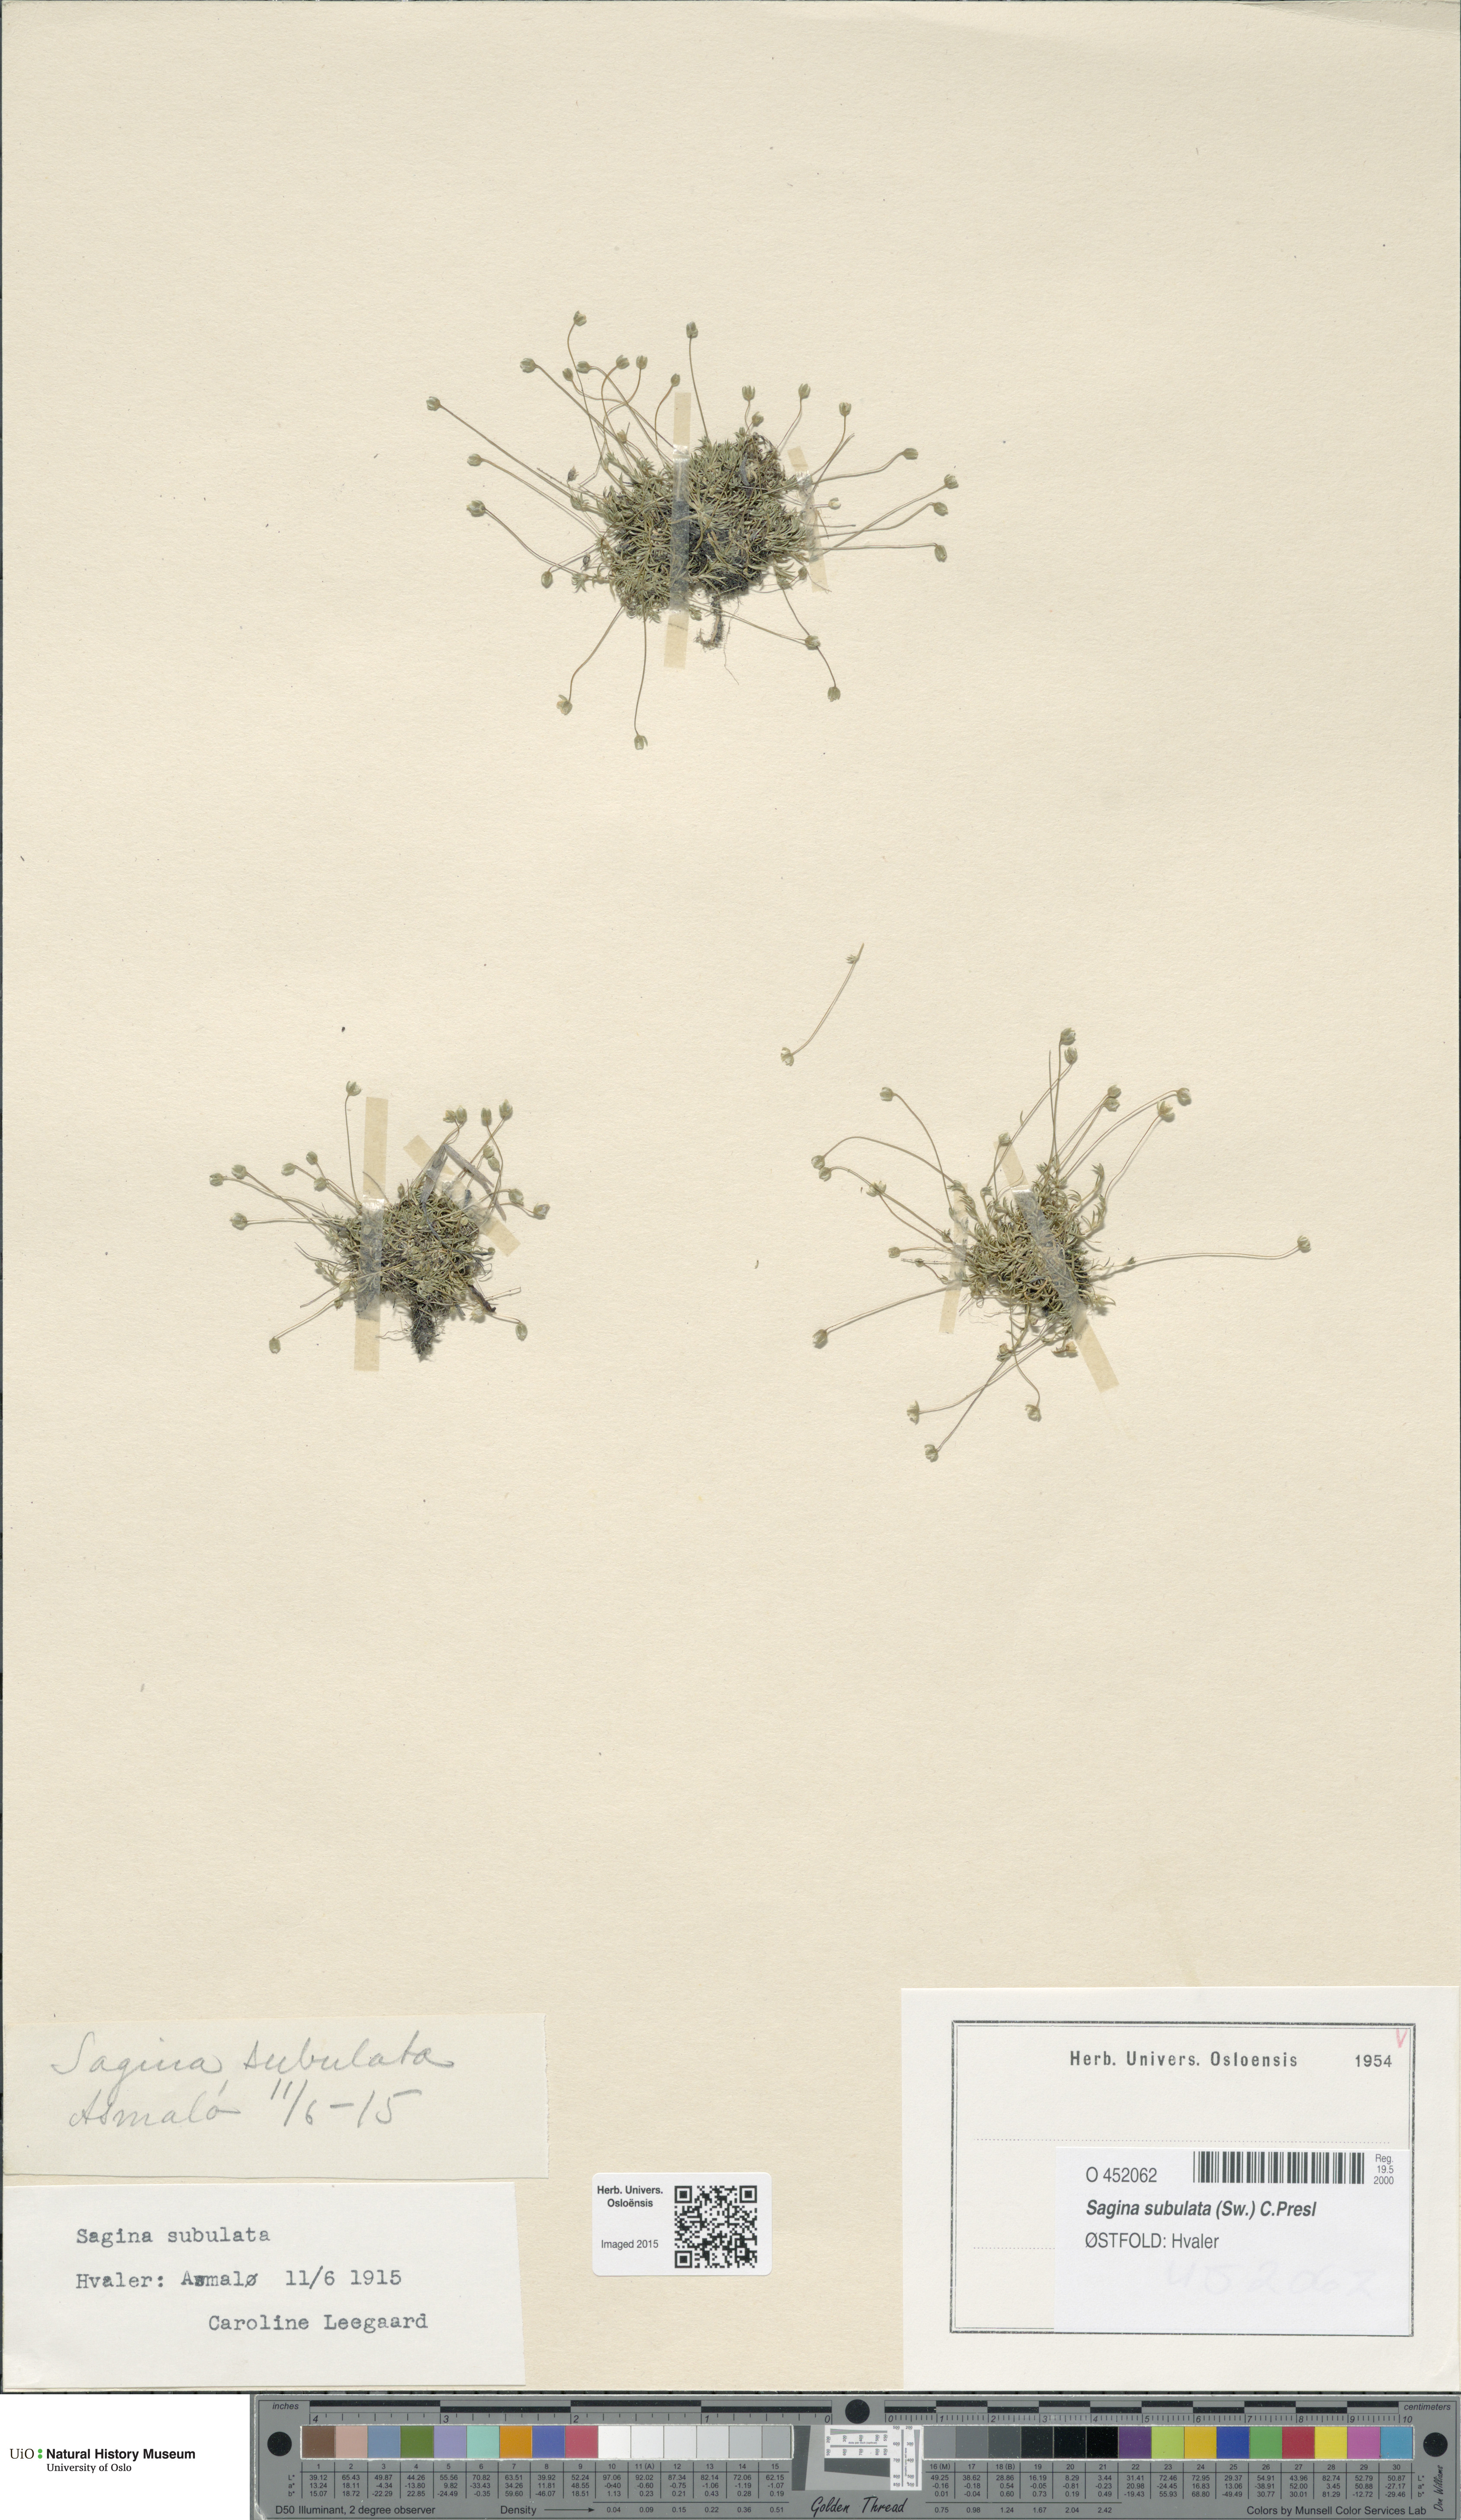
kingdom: Plantae
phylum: Tracheophyta
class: Magnoliopsida
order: Caryophyllales
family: Caryophyllaceae
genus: Sagina
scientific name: Sagina alexandrae
